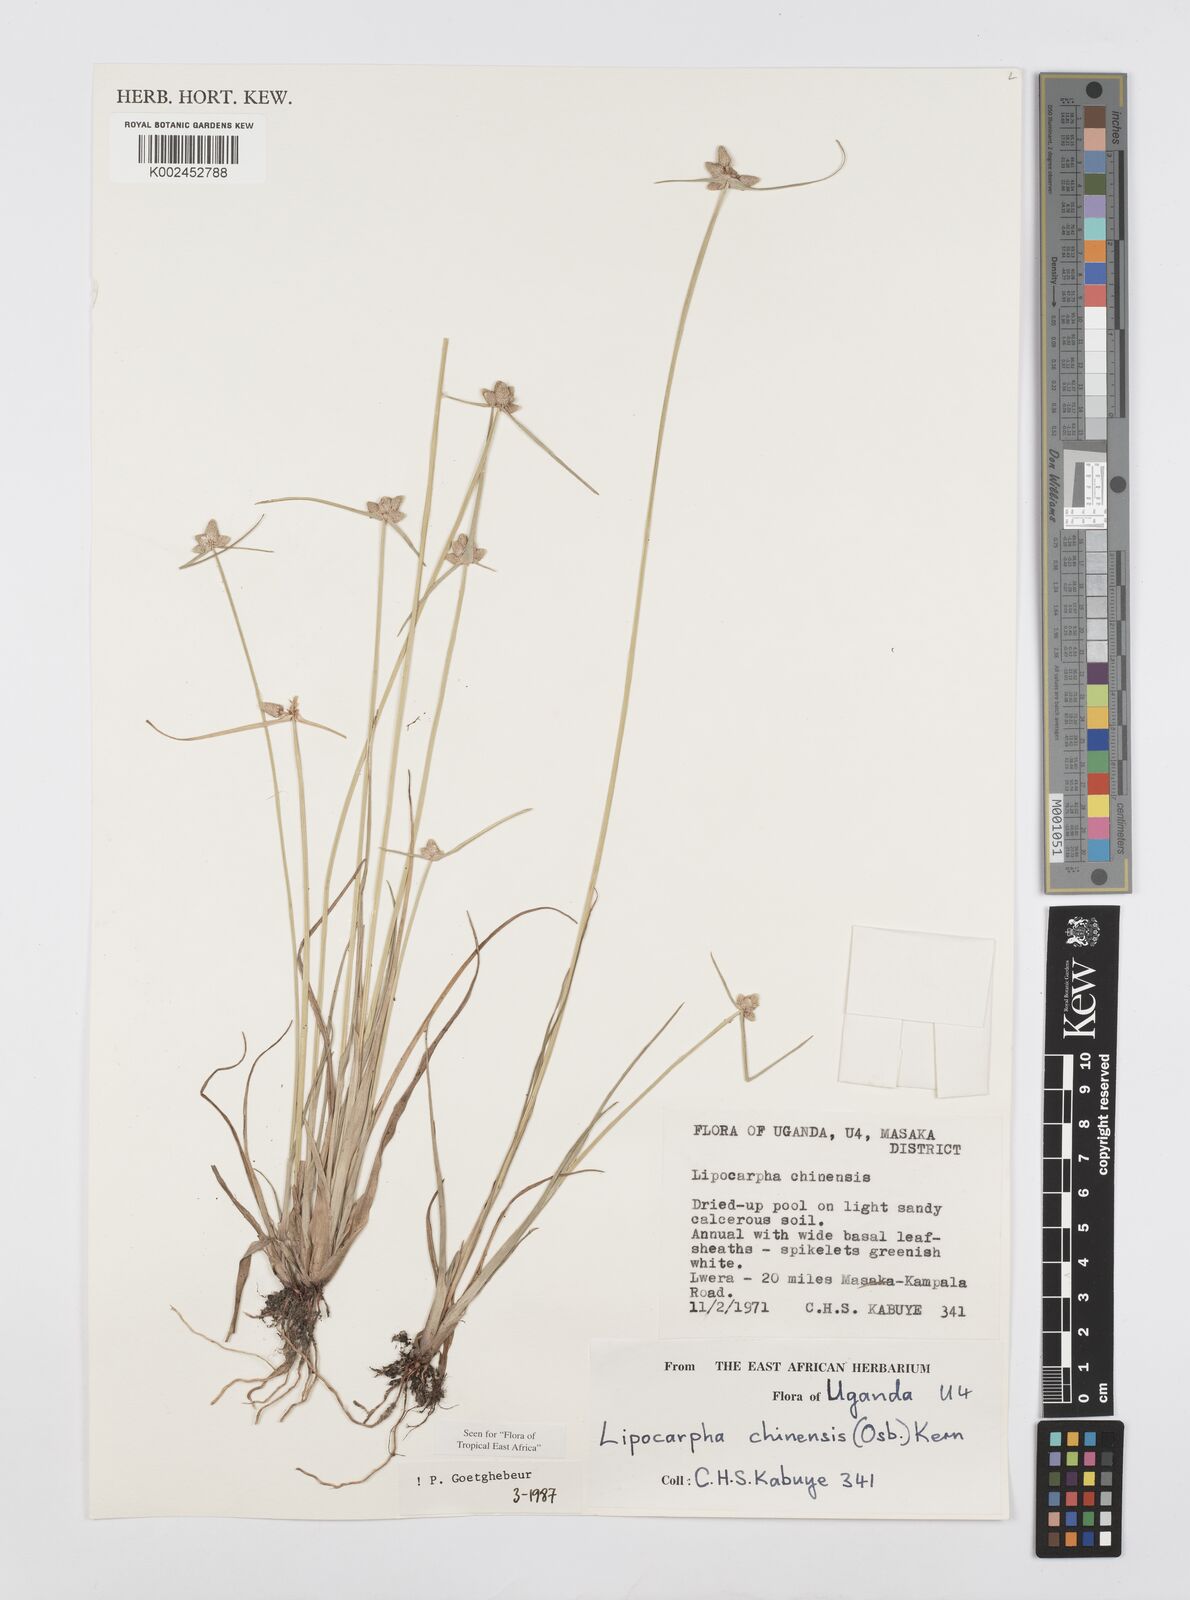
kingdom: Plantae
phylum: Tracheophyta
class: Liliopsida
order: Poales
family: Cyperaceae
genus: Cyperus
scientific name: Cyperus albescens
